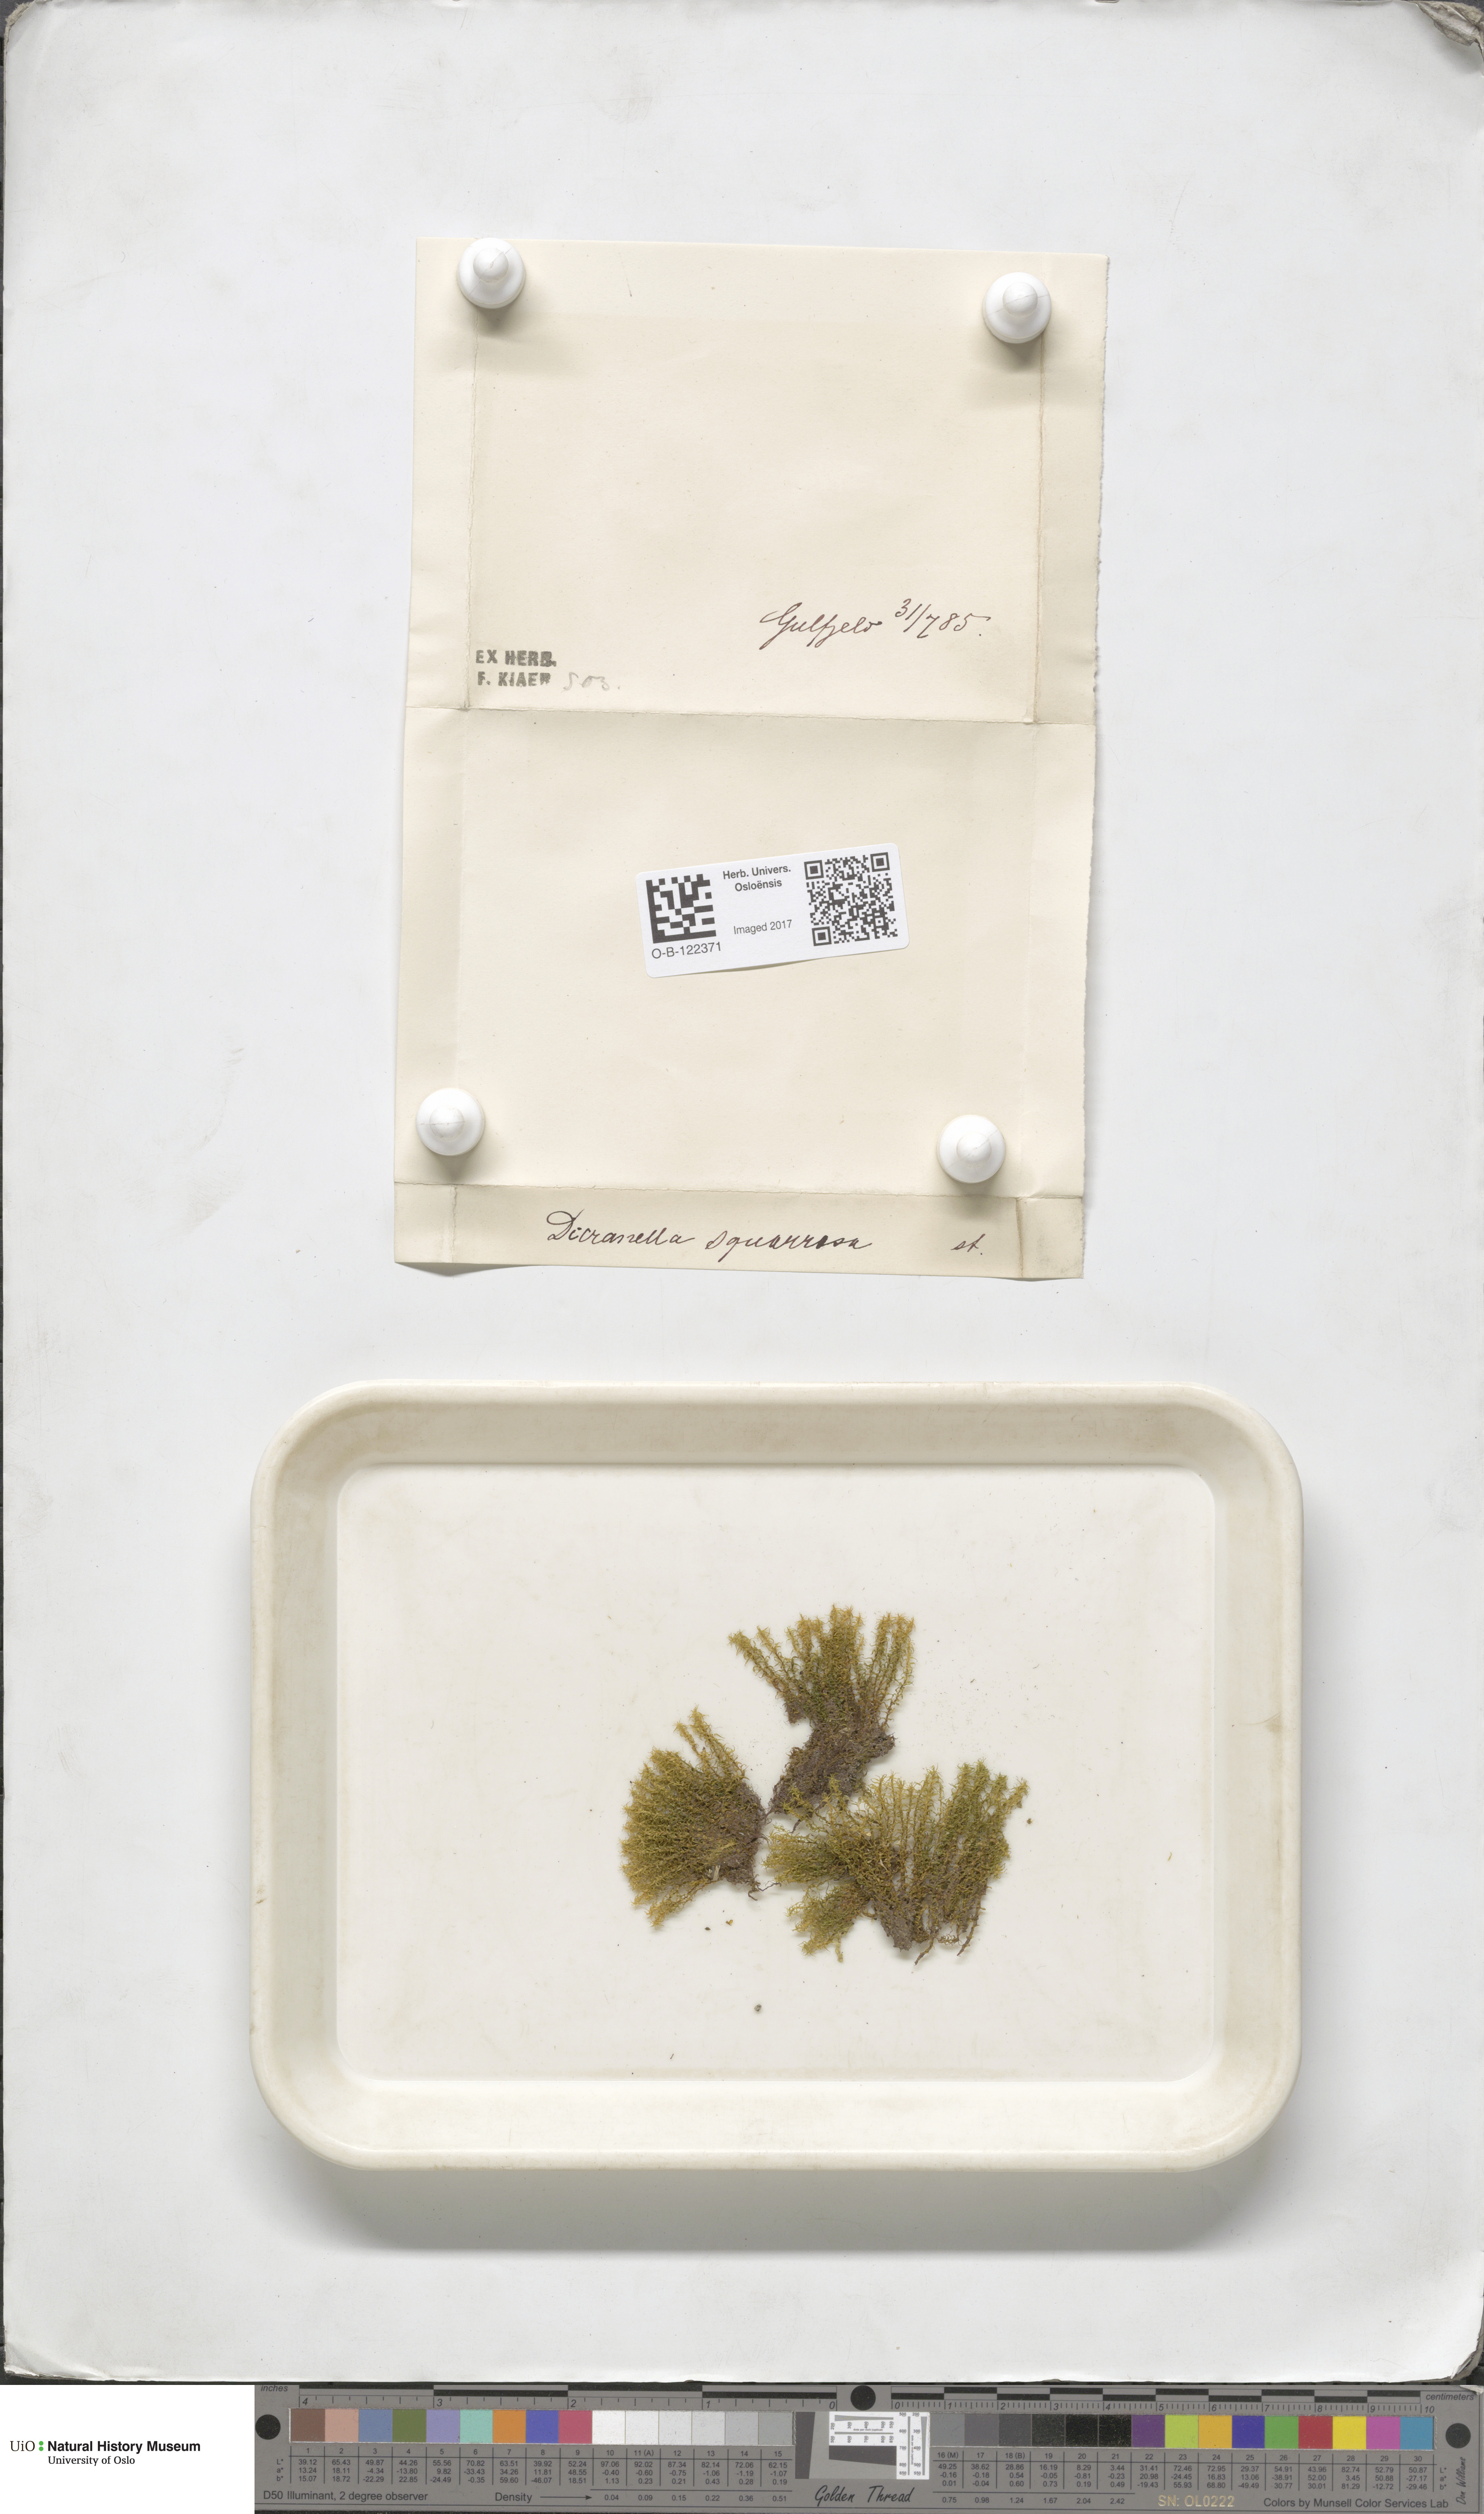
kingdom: Plantae
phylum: Bryophyta
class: Bryopsida
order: Dicranales
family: Aongstroemiaceae
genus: Diobelonella
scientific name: Diobelonella palustris
